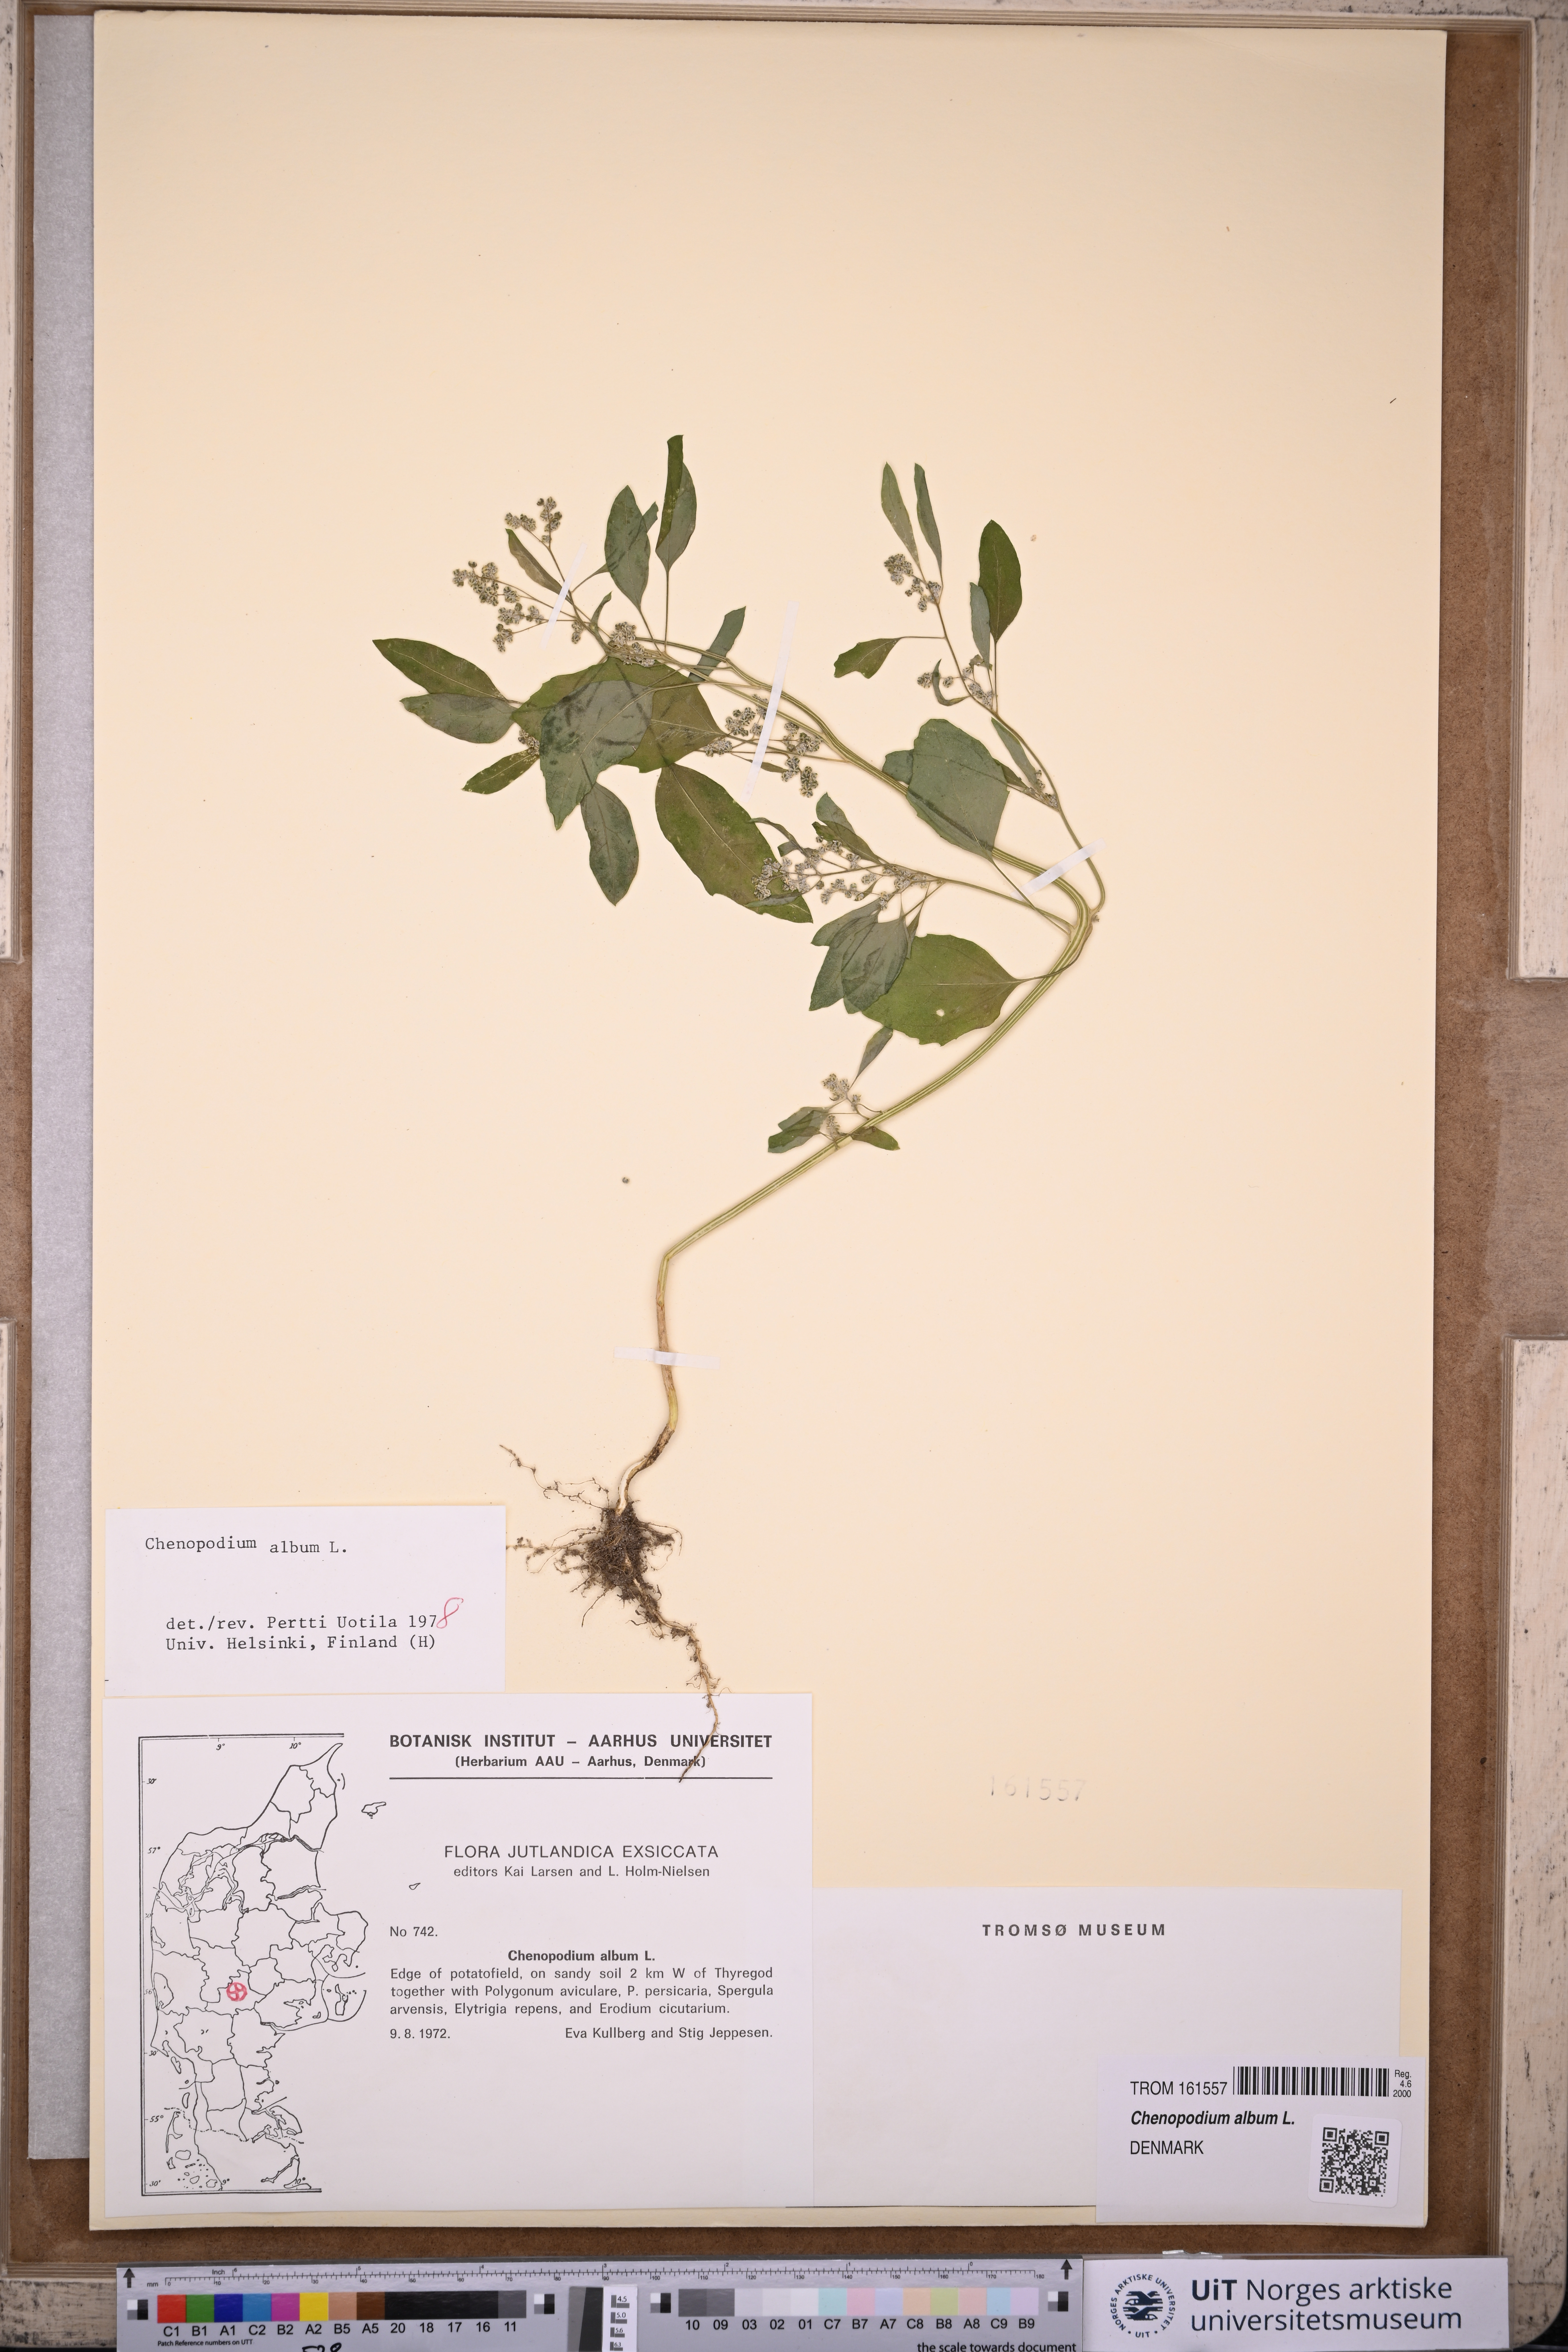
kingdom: Plantae
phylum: Tracheophyta
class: Magnoliopsida
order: Caryophyllales
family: Amaranthaceae
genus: Chenopodium
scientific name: Chenopodium album
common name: Fat-hen
